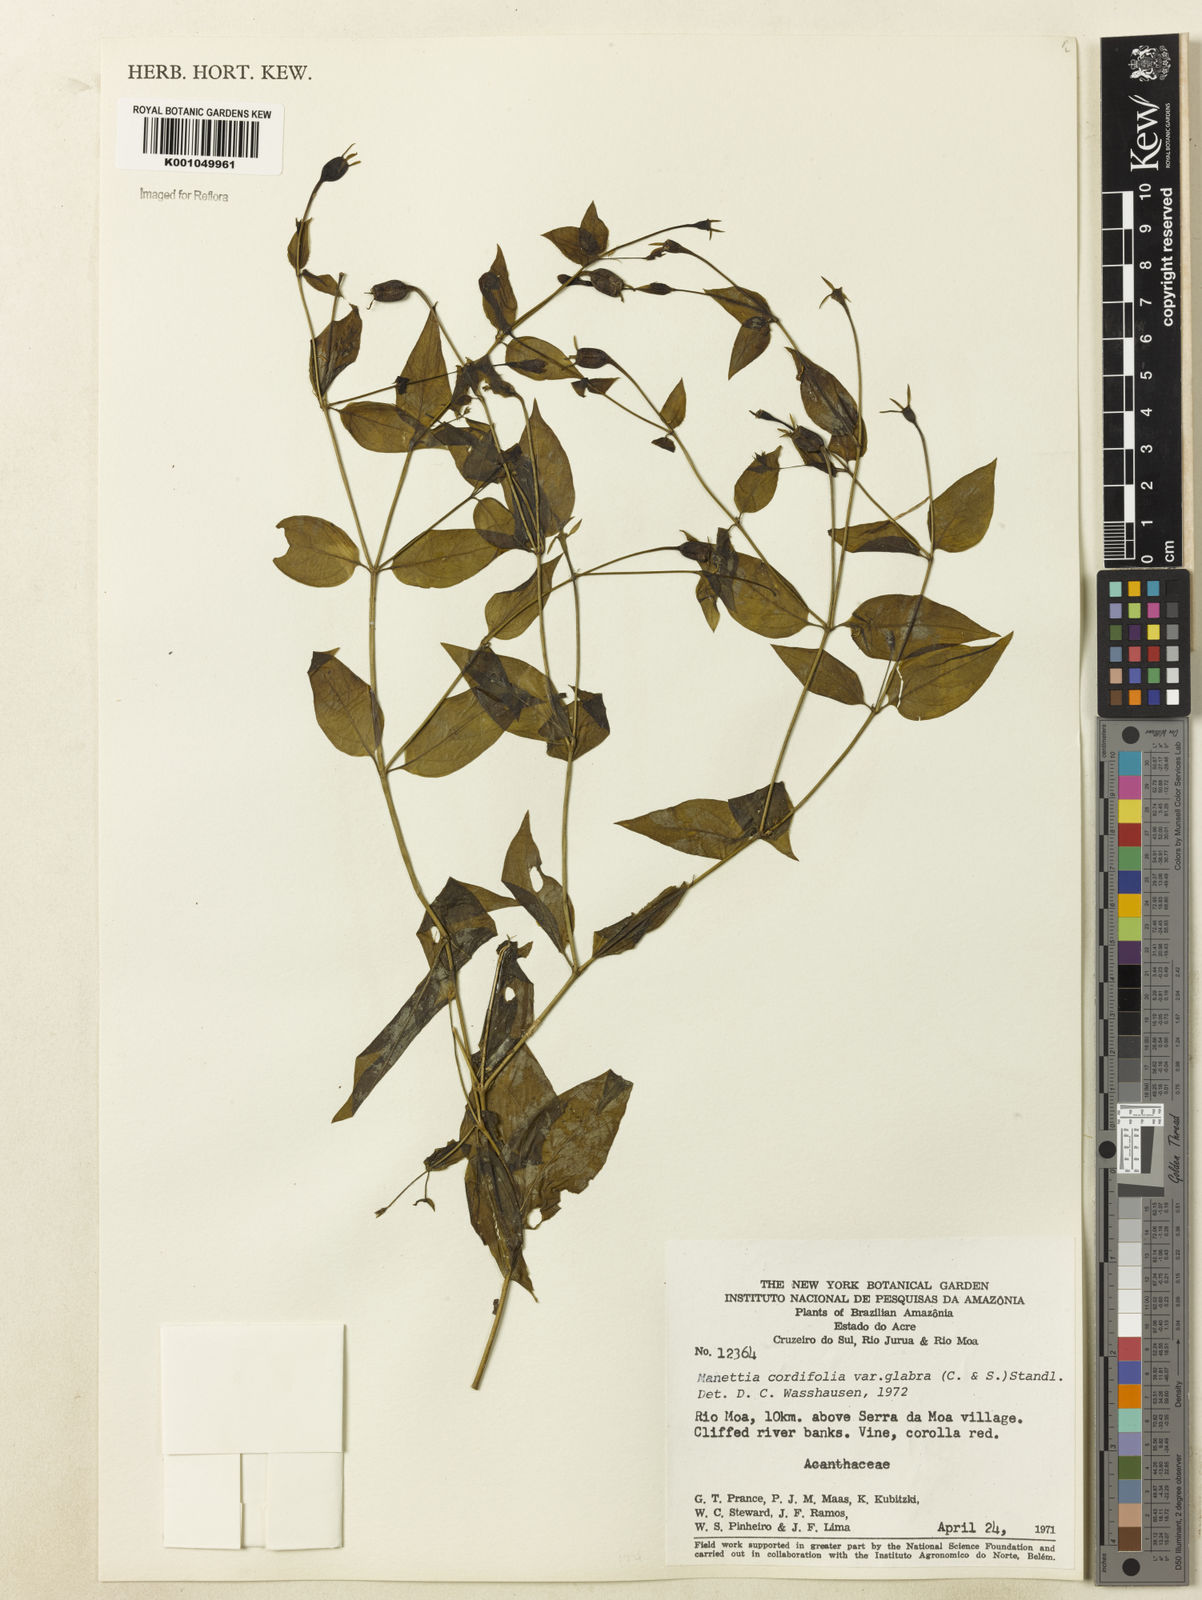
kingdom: Plantae
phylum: Tracheophyta
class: Magnoliopsida
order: Gentianales
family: Rubiaceae
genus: Manettia
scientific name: Manettia cordifolia
